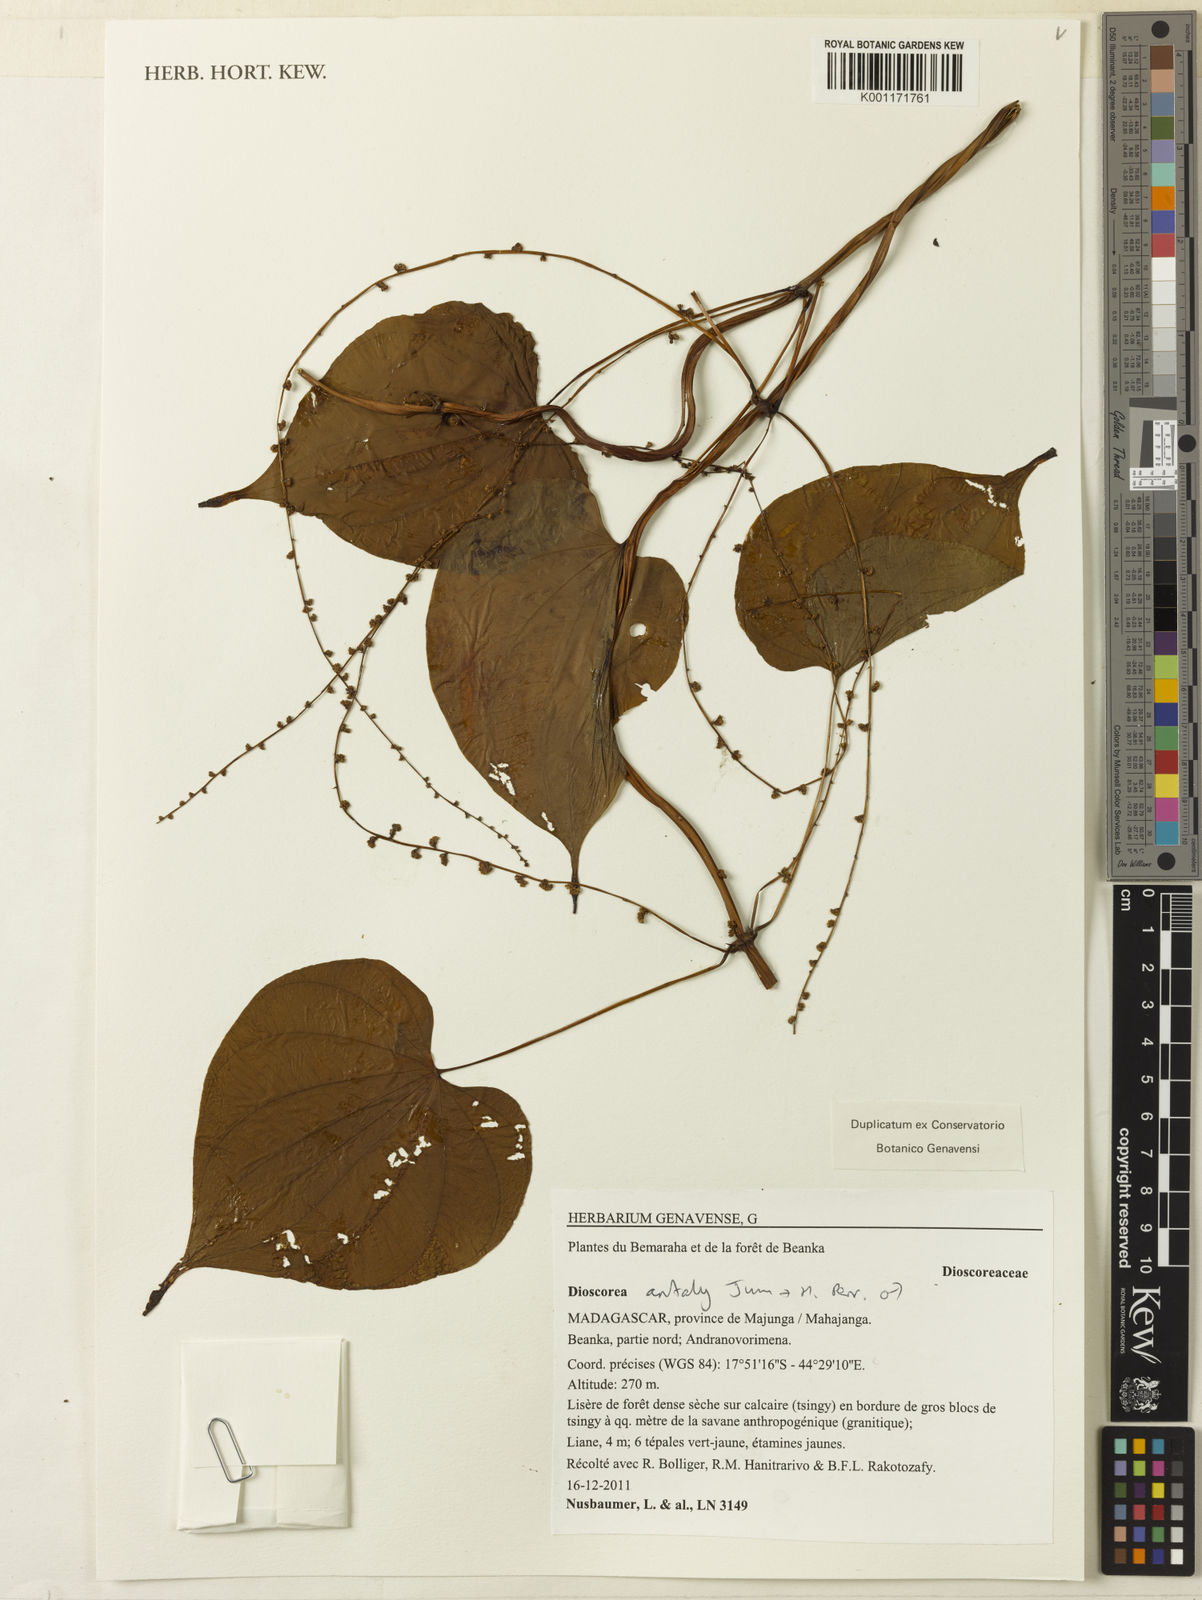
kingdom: Plantae
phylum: Tracheophyta
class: Liliopsida
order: Dioscoreales
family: Dioscoreaceae
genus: Dioscorea
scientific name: Dioscorea antaly
